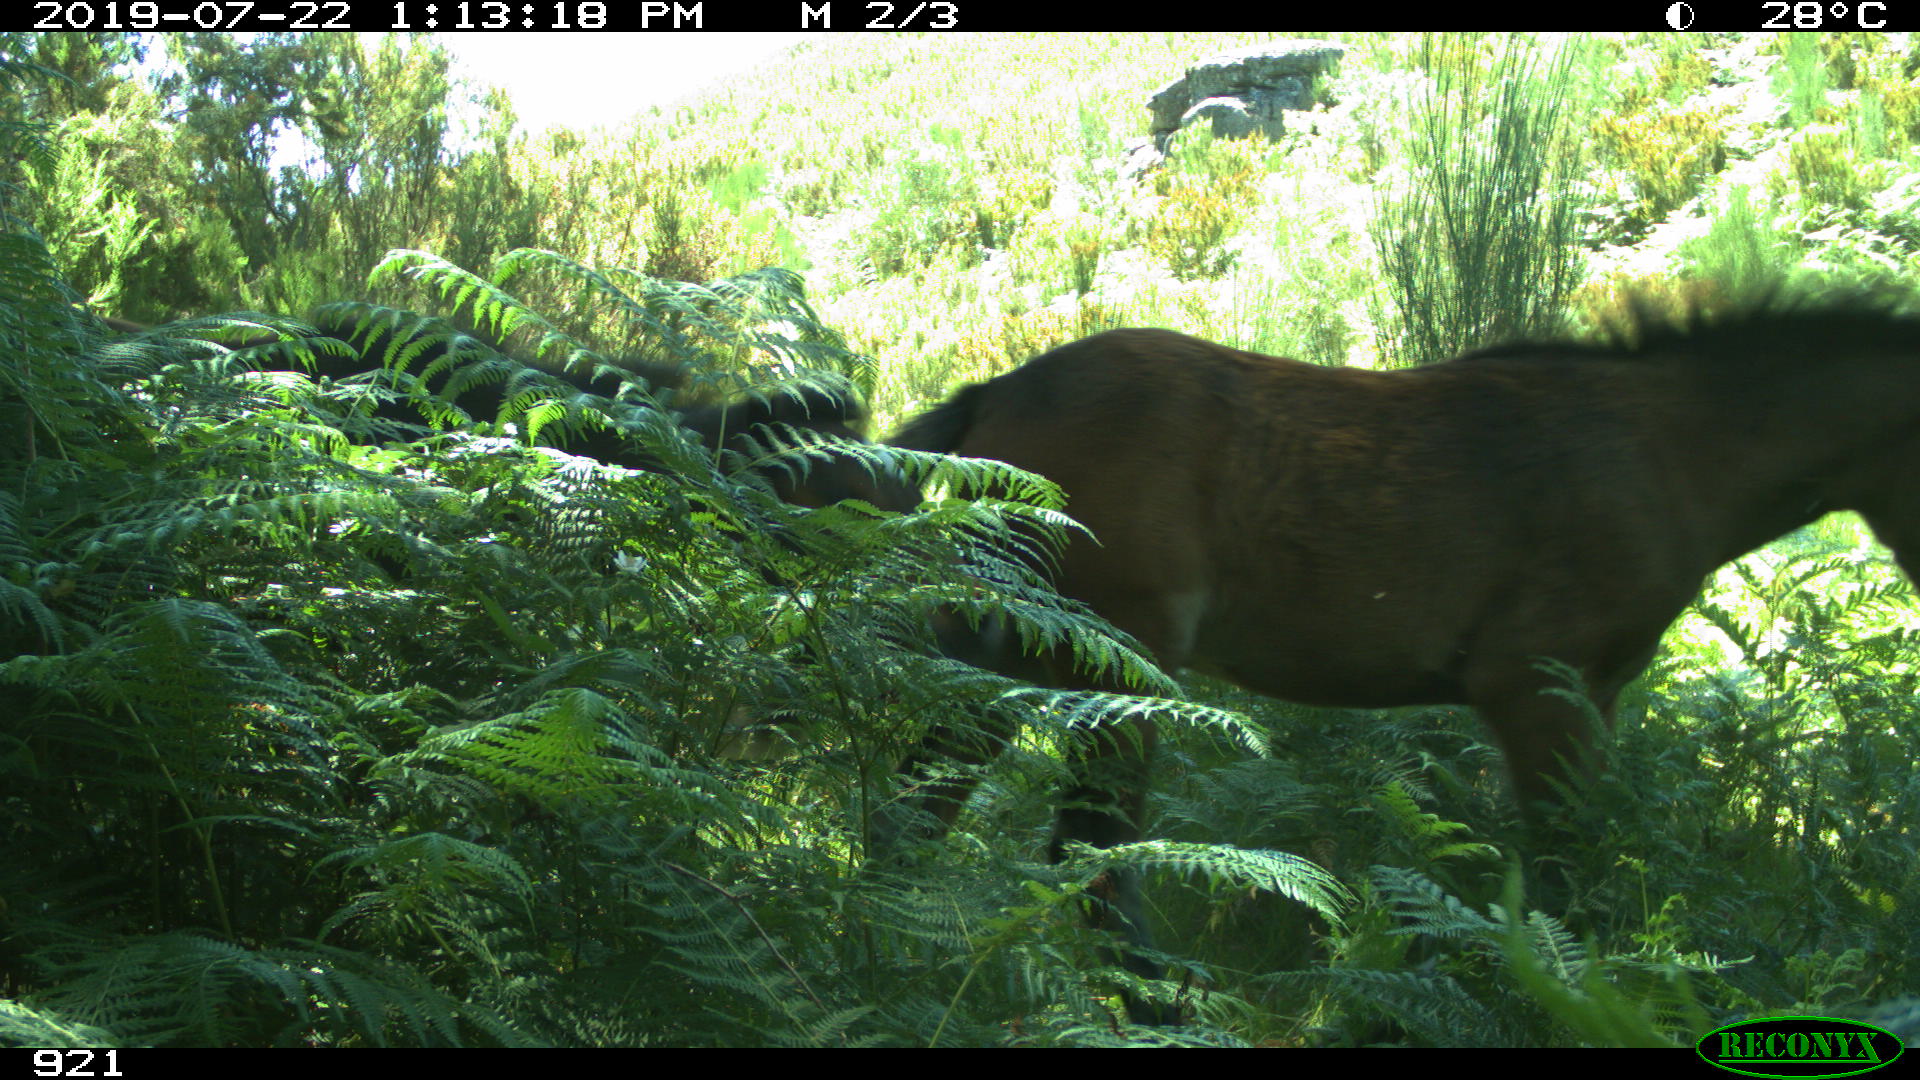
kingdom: Animalia
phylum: Chordata
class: Mammalia
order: Perissodactyla
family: Equidae
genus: Equus
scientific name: Equus caballus
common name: Horse
